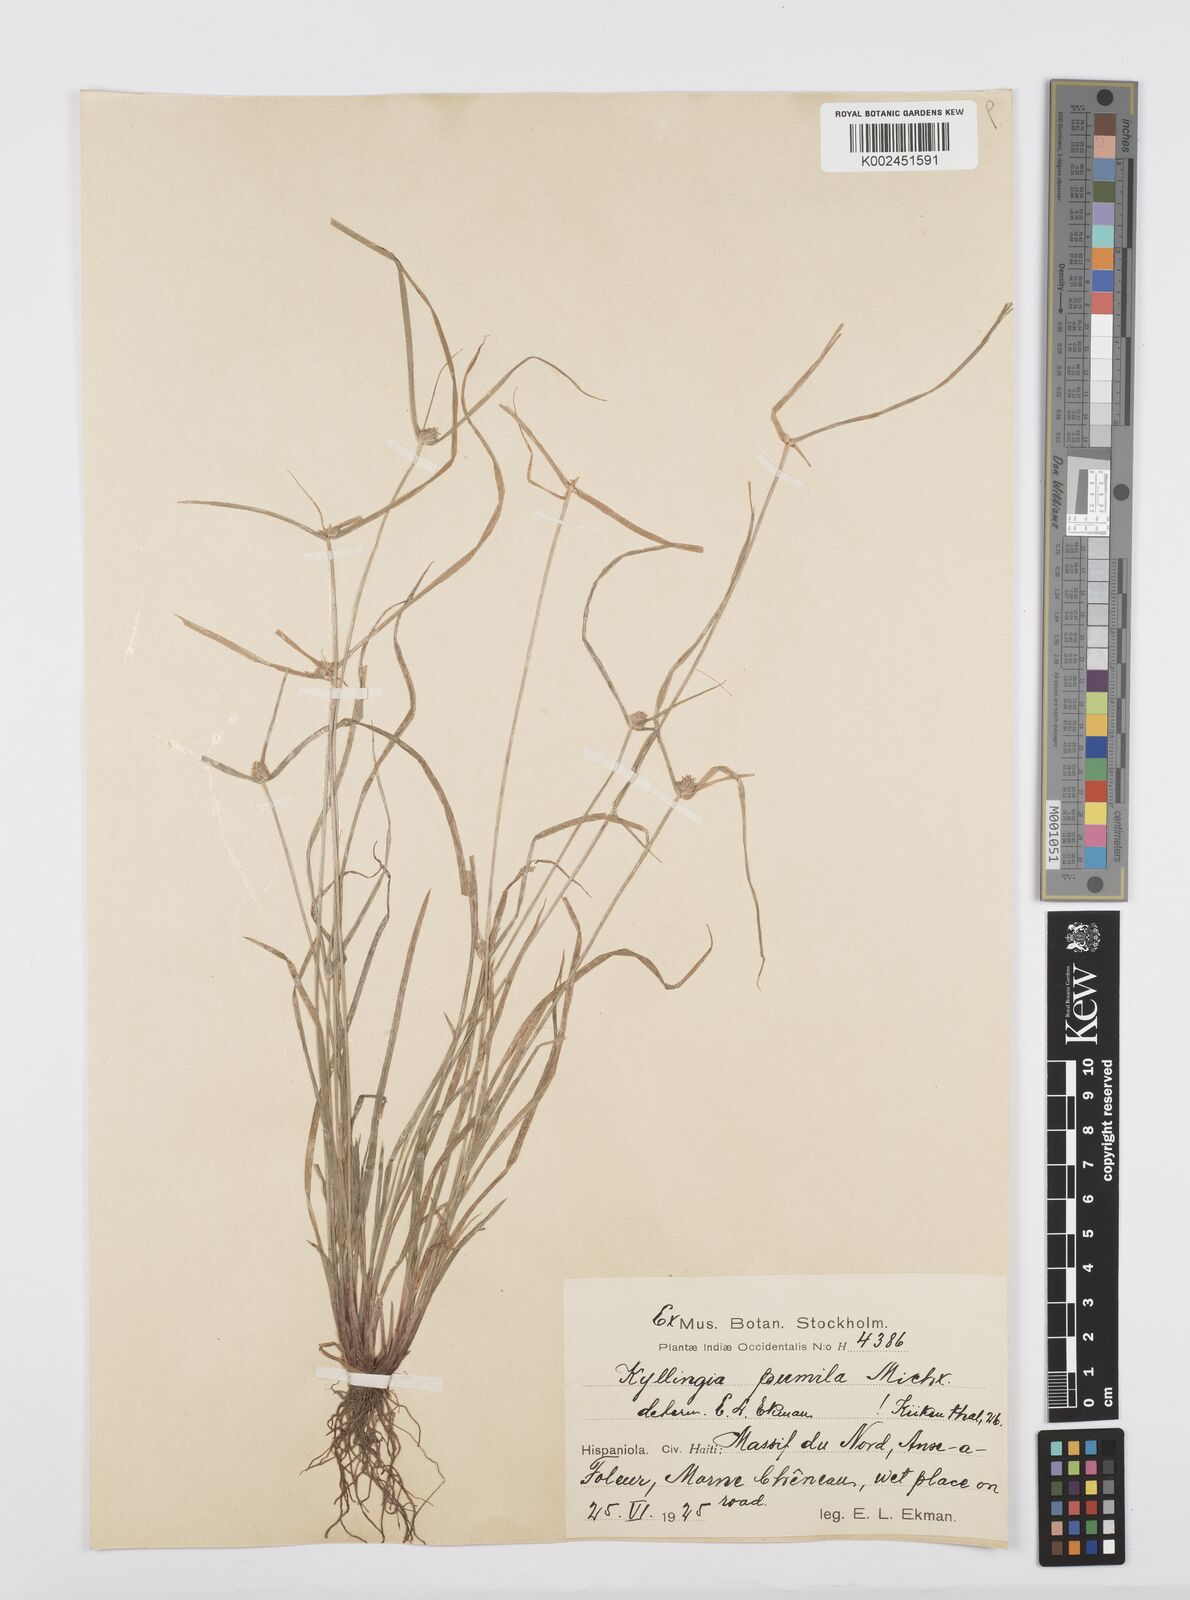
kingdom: Plantae
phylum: Tracheophyta
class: Liliopsida
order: Poales
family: Cyperaceae
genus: Cyperus
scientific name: Cyperus
